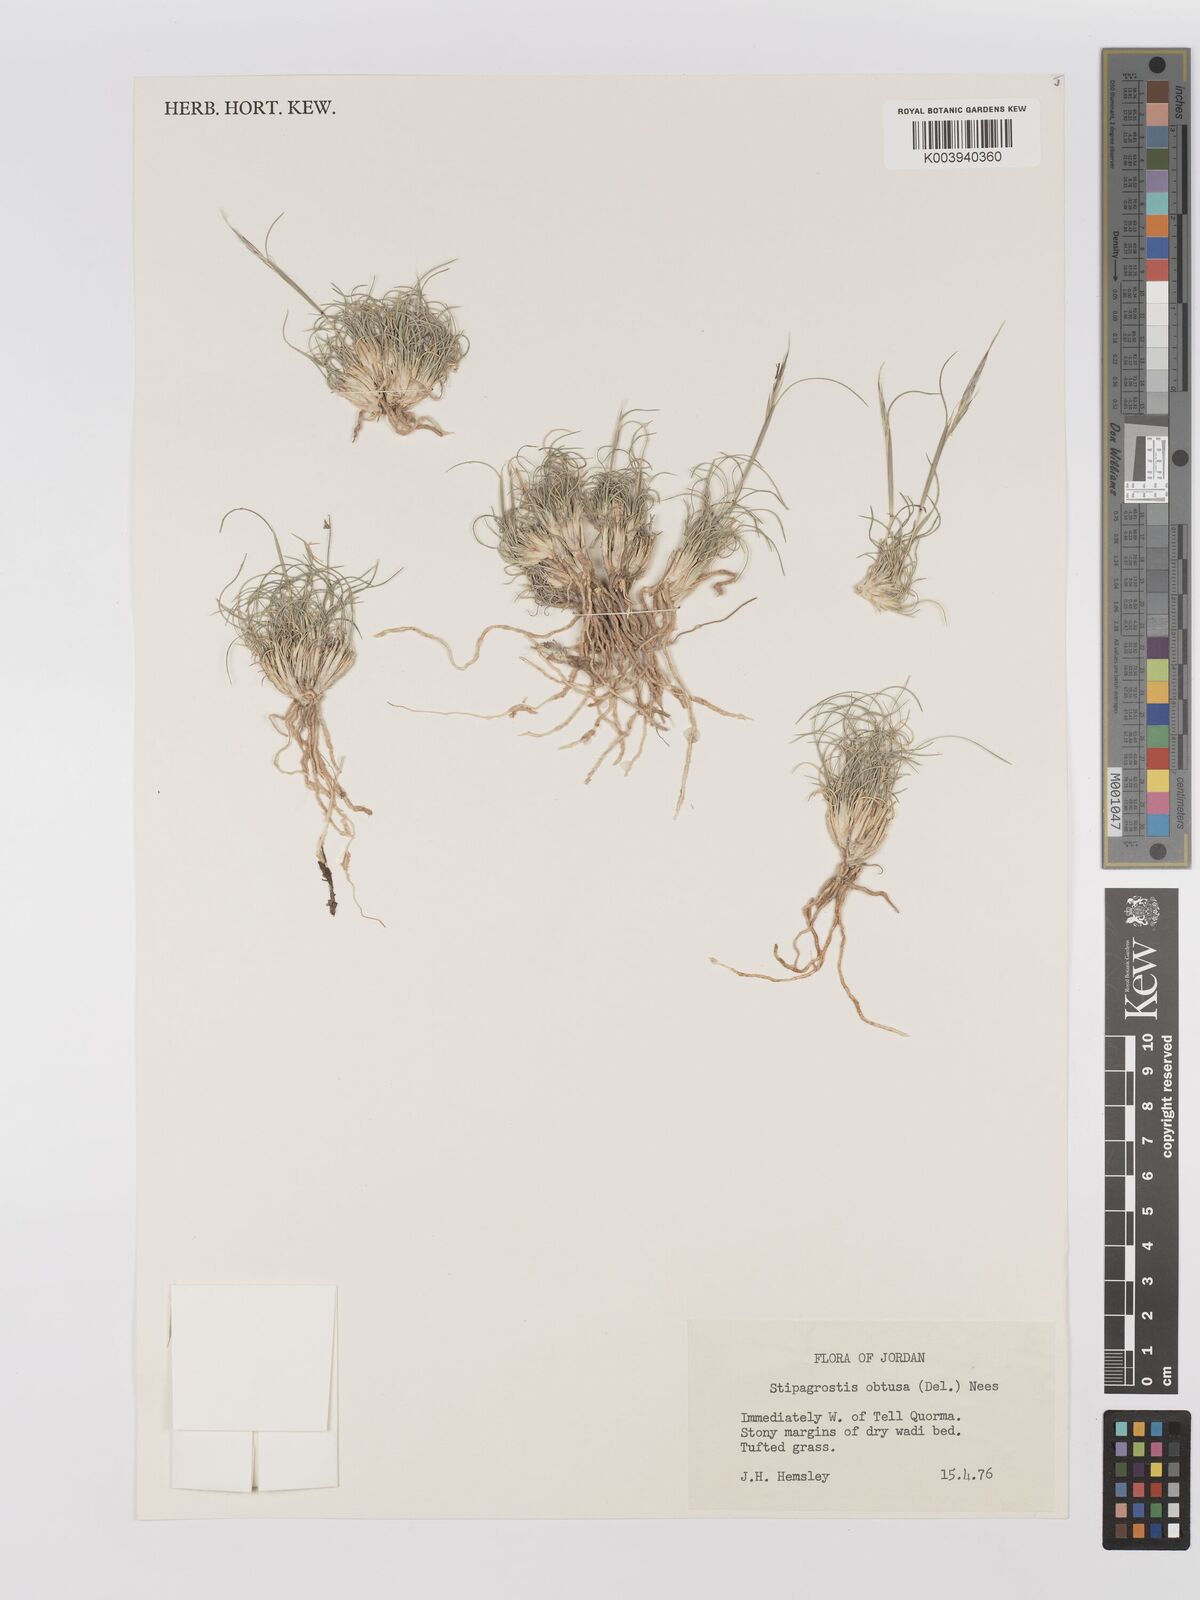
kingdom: Plantae
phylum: Tracheophyta
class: Liliopsida
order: Poales
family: Poaceae
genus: Stipagrostis
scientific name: Stipagrostis obtusa
